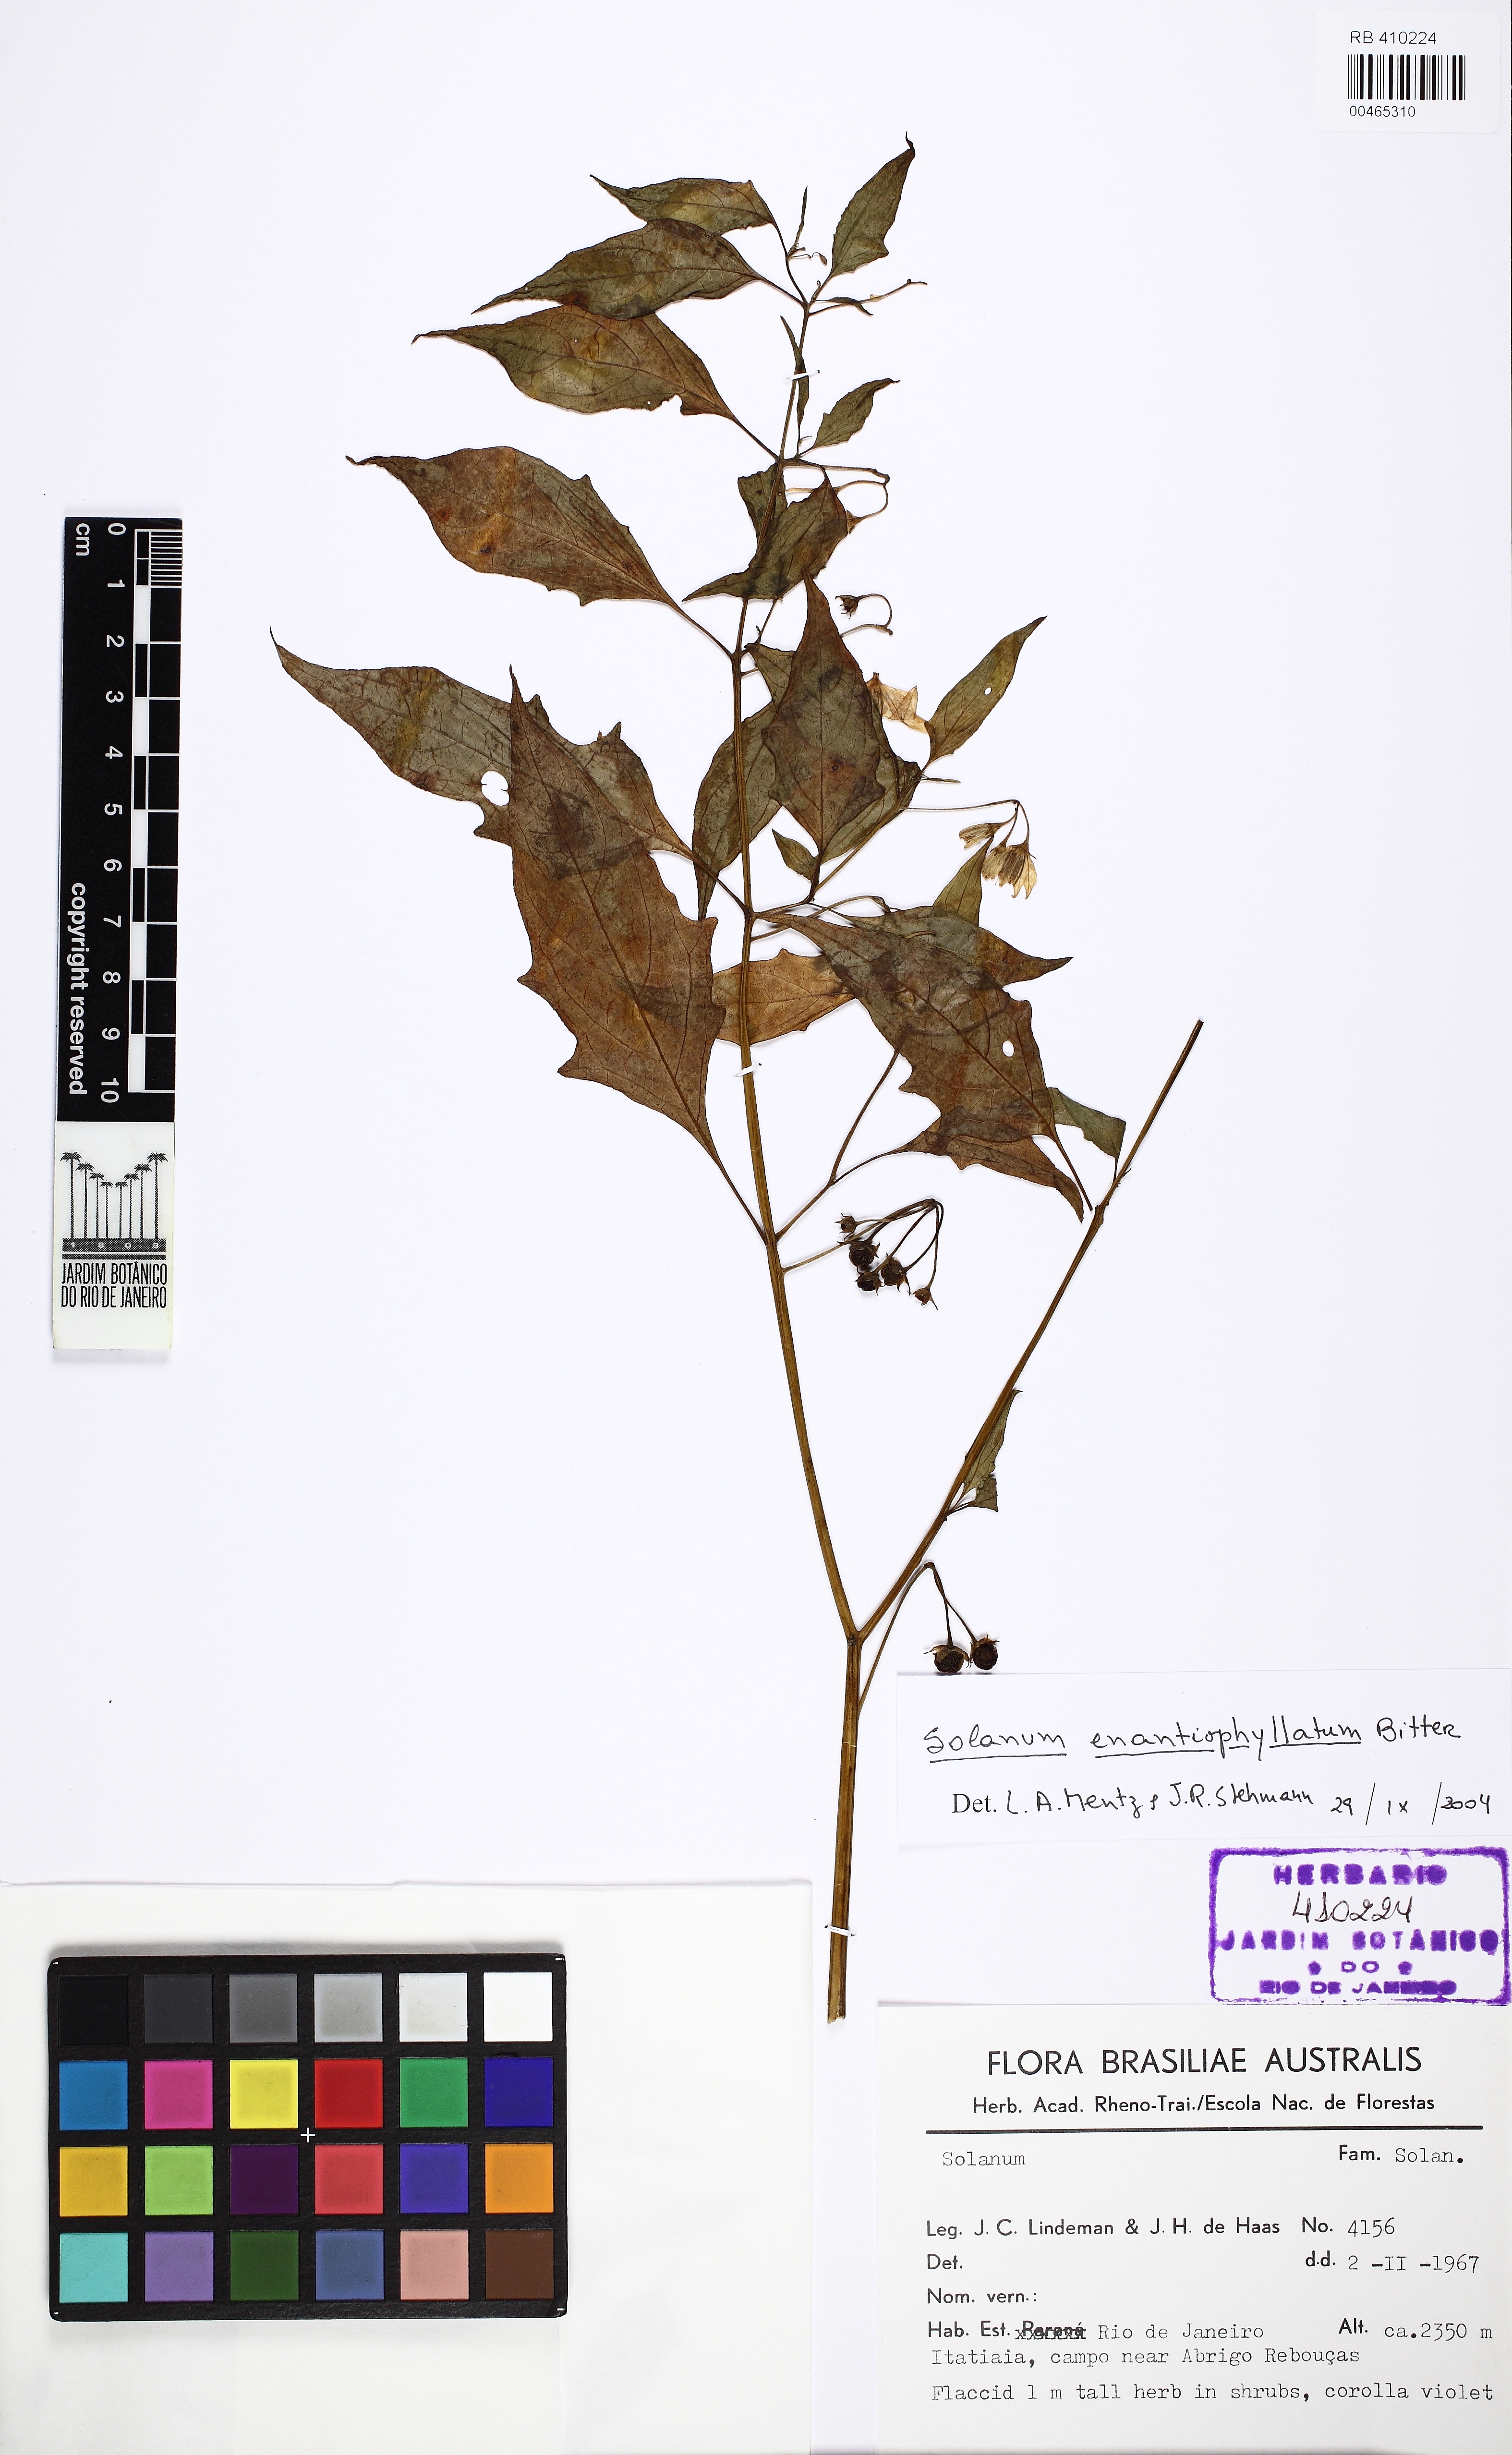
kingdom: Plantae
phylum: Tracheophyta
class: Magnoliopsida
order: Solanales
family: Solanaceae
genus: Solanum
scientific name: Solanum enantiophyllanthum
